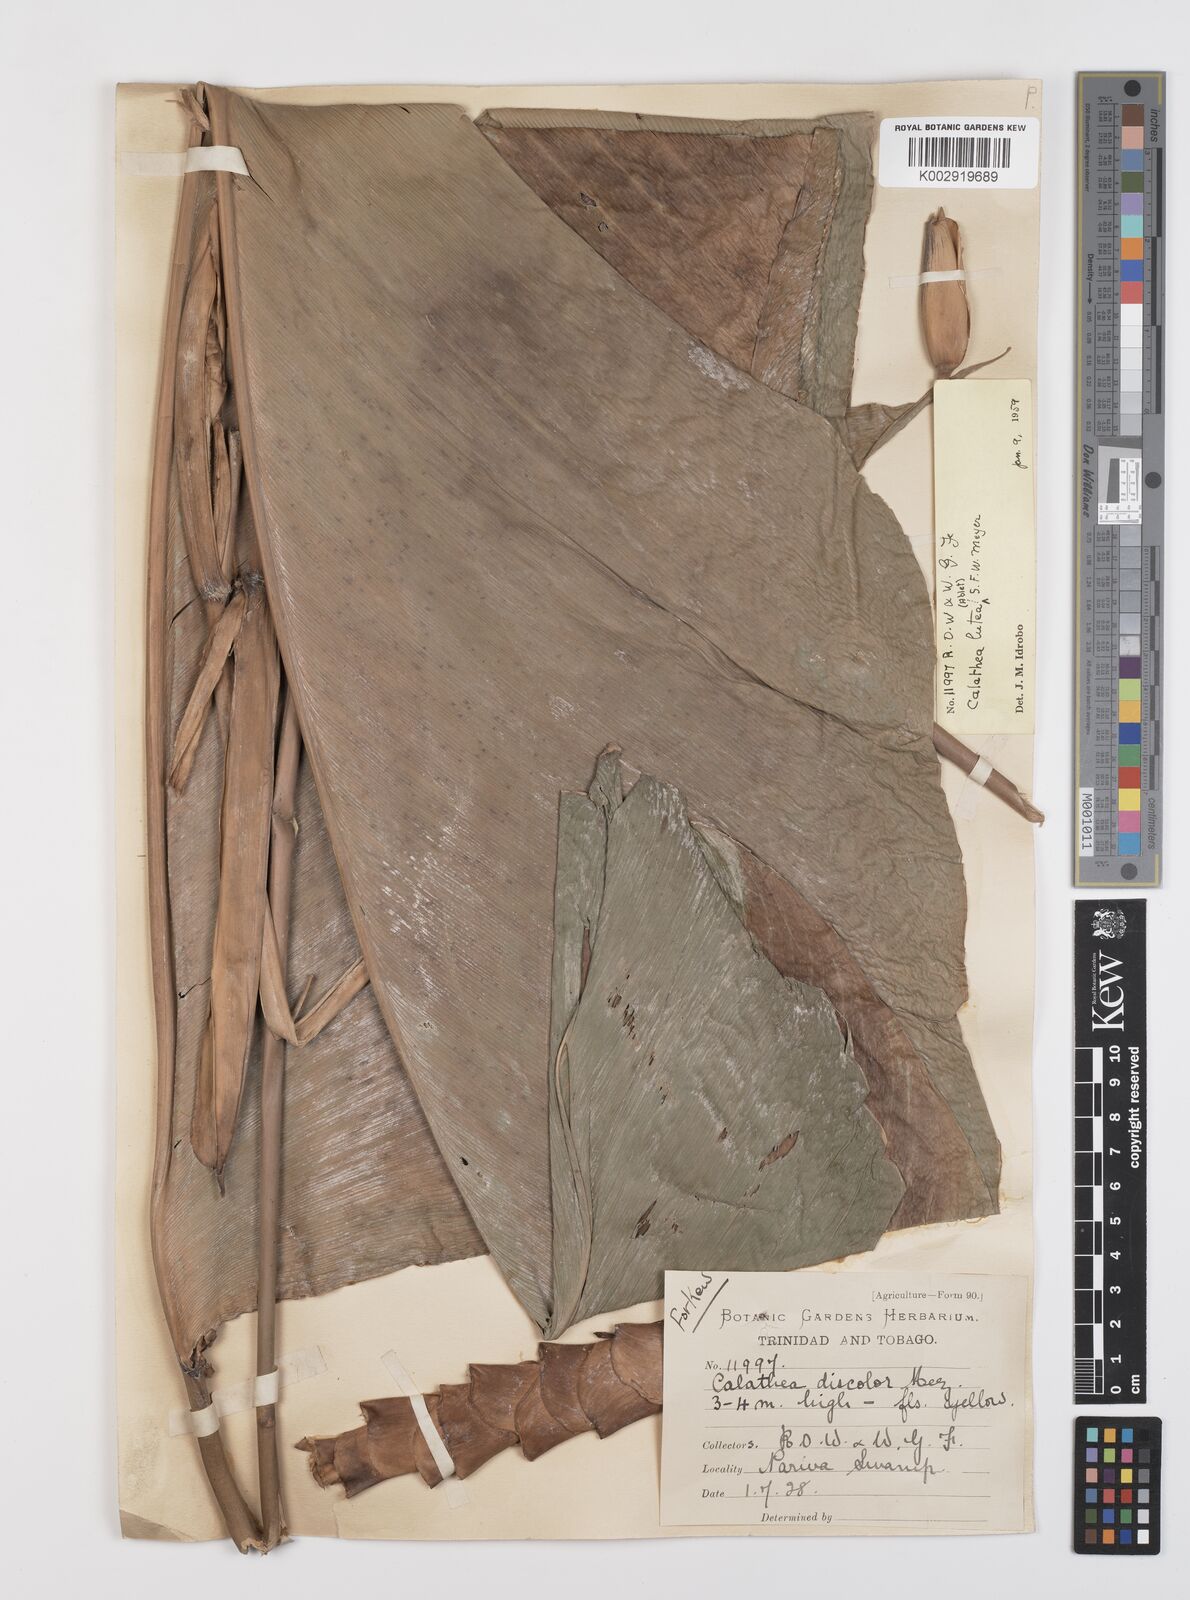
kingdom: Plantae
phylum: Tracheophyta
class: Liliopsida
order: Zingiberales
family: Marantaceae
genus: Calathea
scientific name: Calathea lutea
